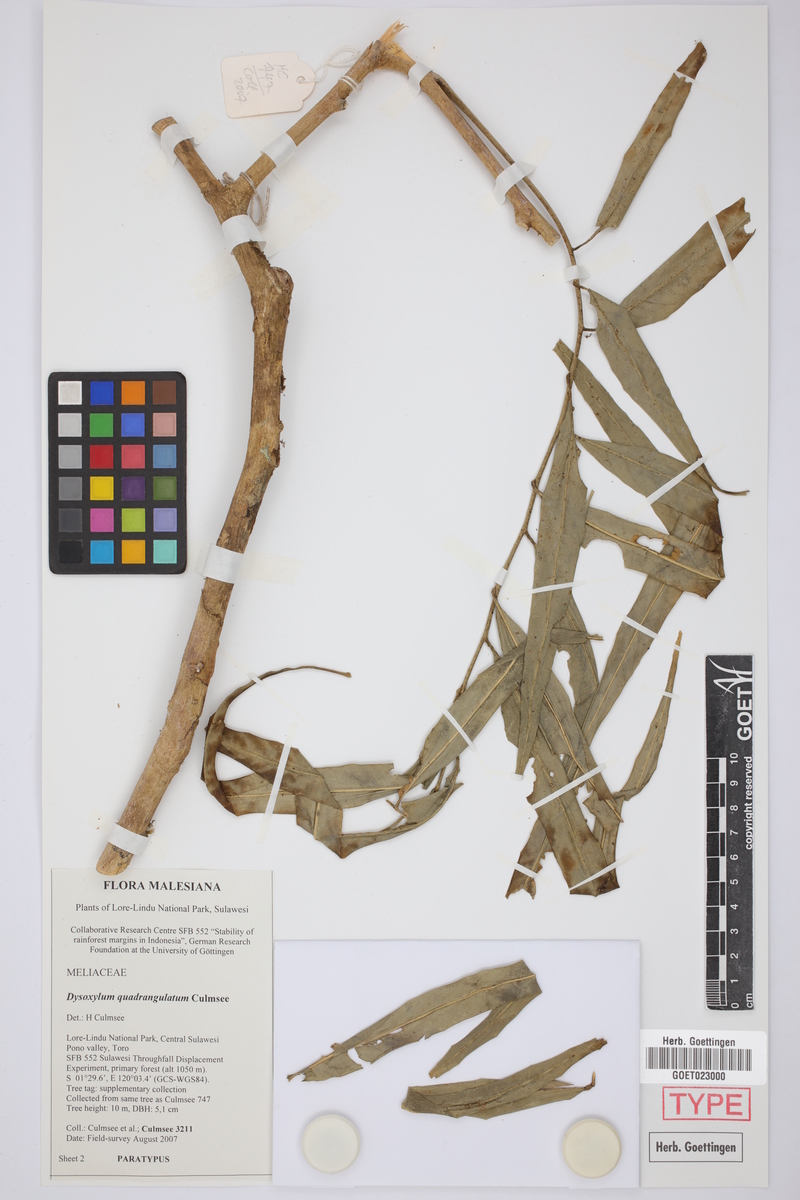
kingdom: Plantae
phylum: Tracheophyta
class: Magnoliopsida
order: Sapindales
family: Meliaceae
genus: Dysoxylum
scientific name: Dysoxylum quadrangulatum
